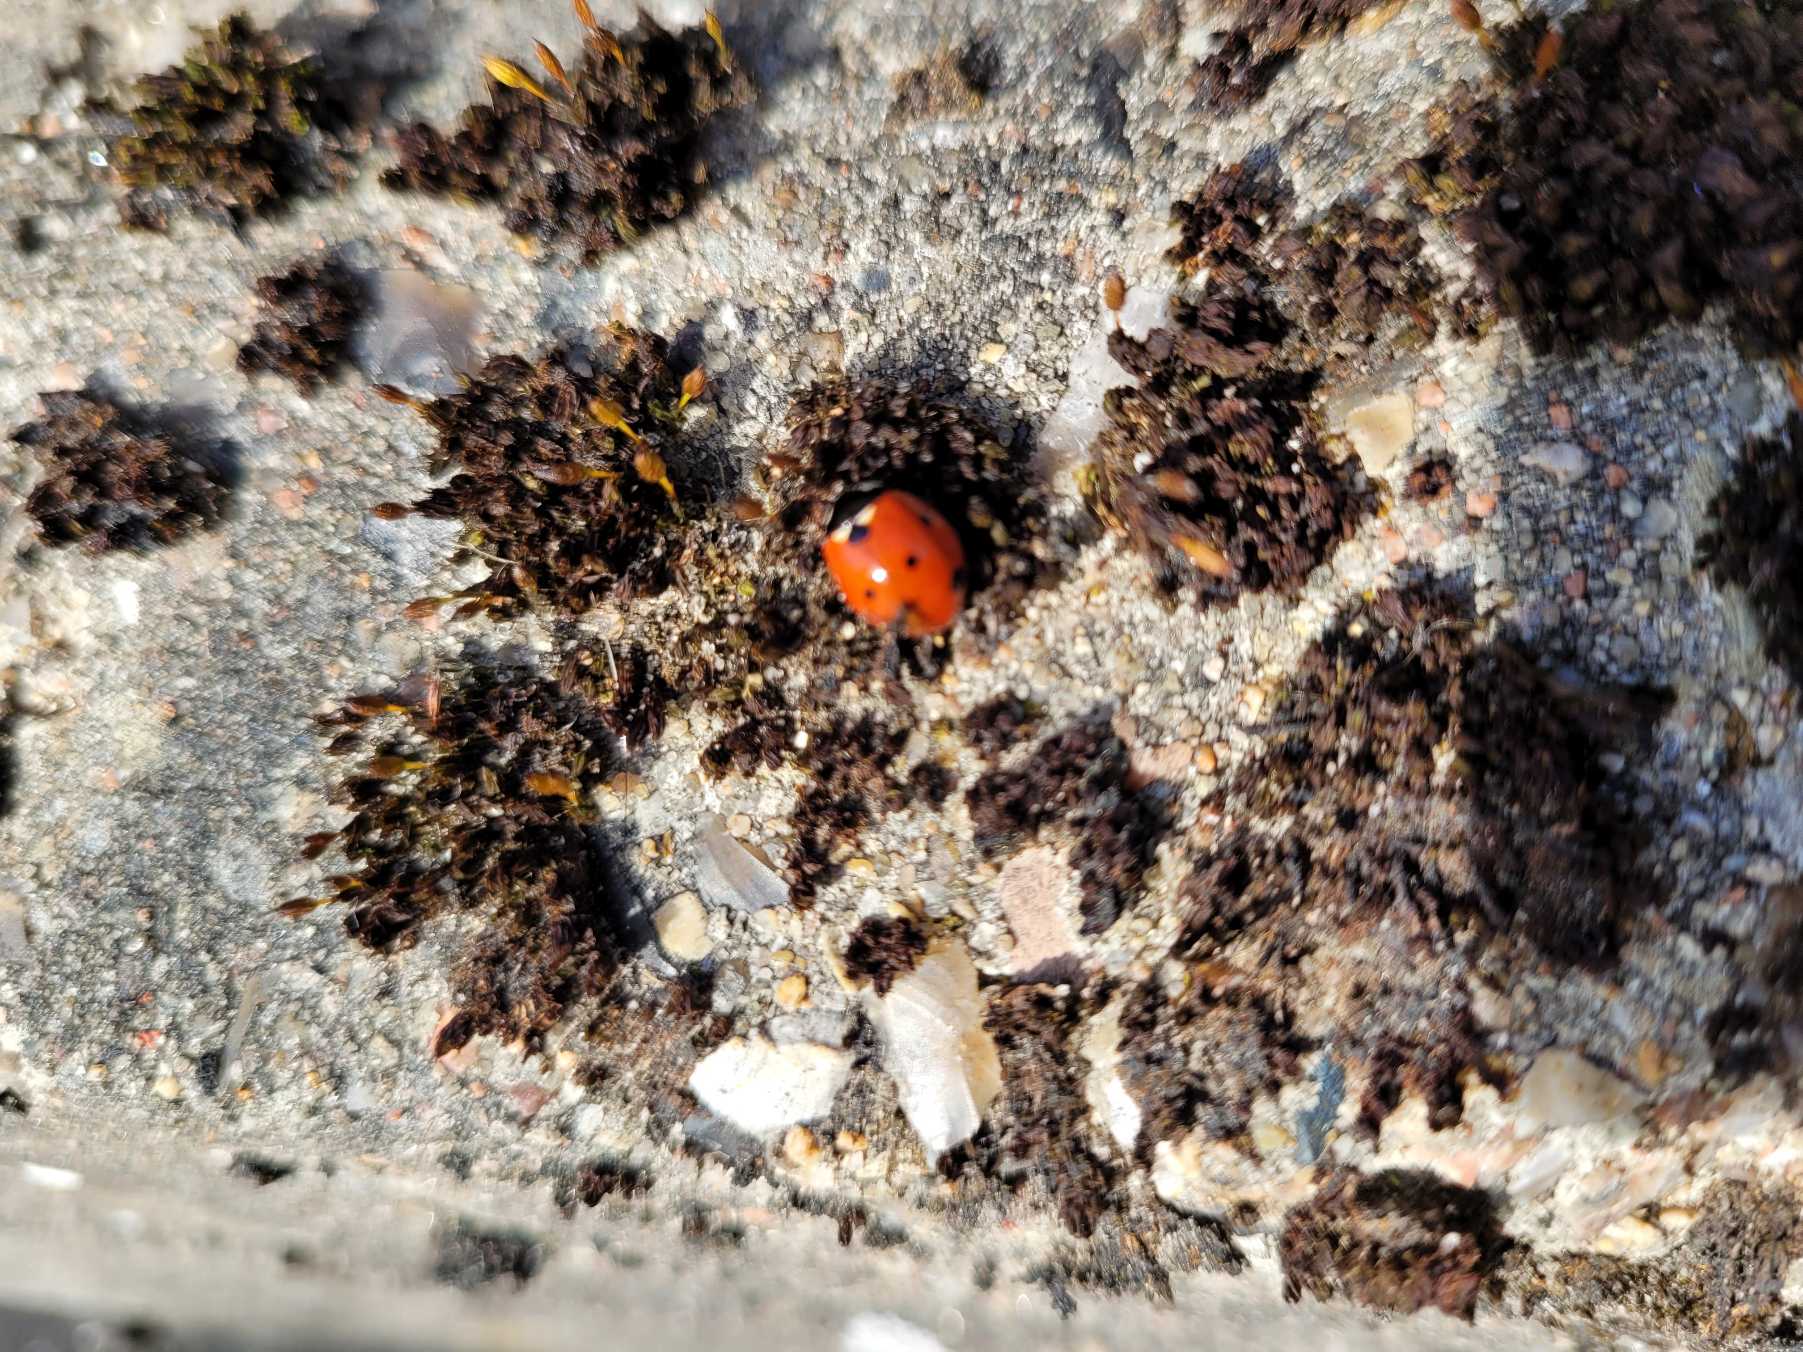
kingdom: Animalia
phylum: Arthropoda
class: Insecta
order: Coleoptera
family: Coccinellidae
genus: Coccinella
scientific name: Coccinella septempunctata
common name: Syvplettet mariehøne
